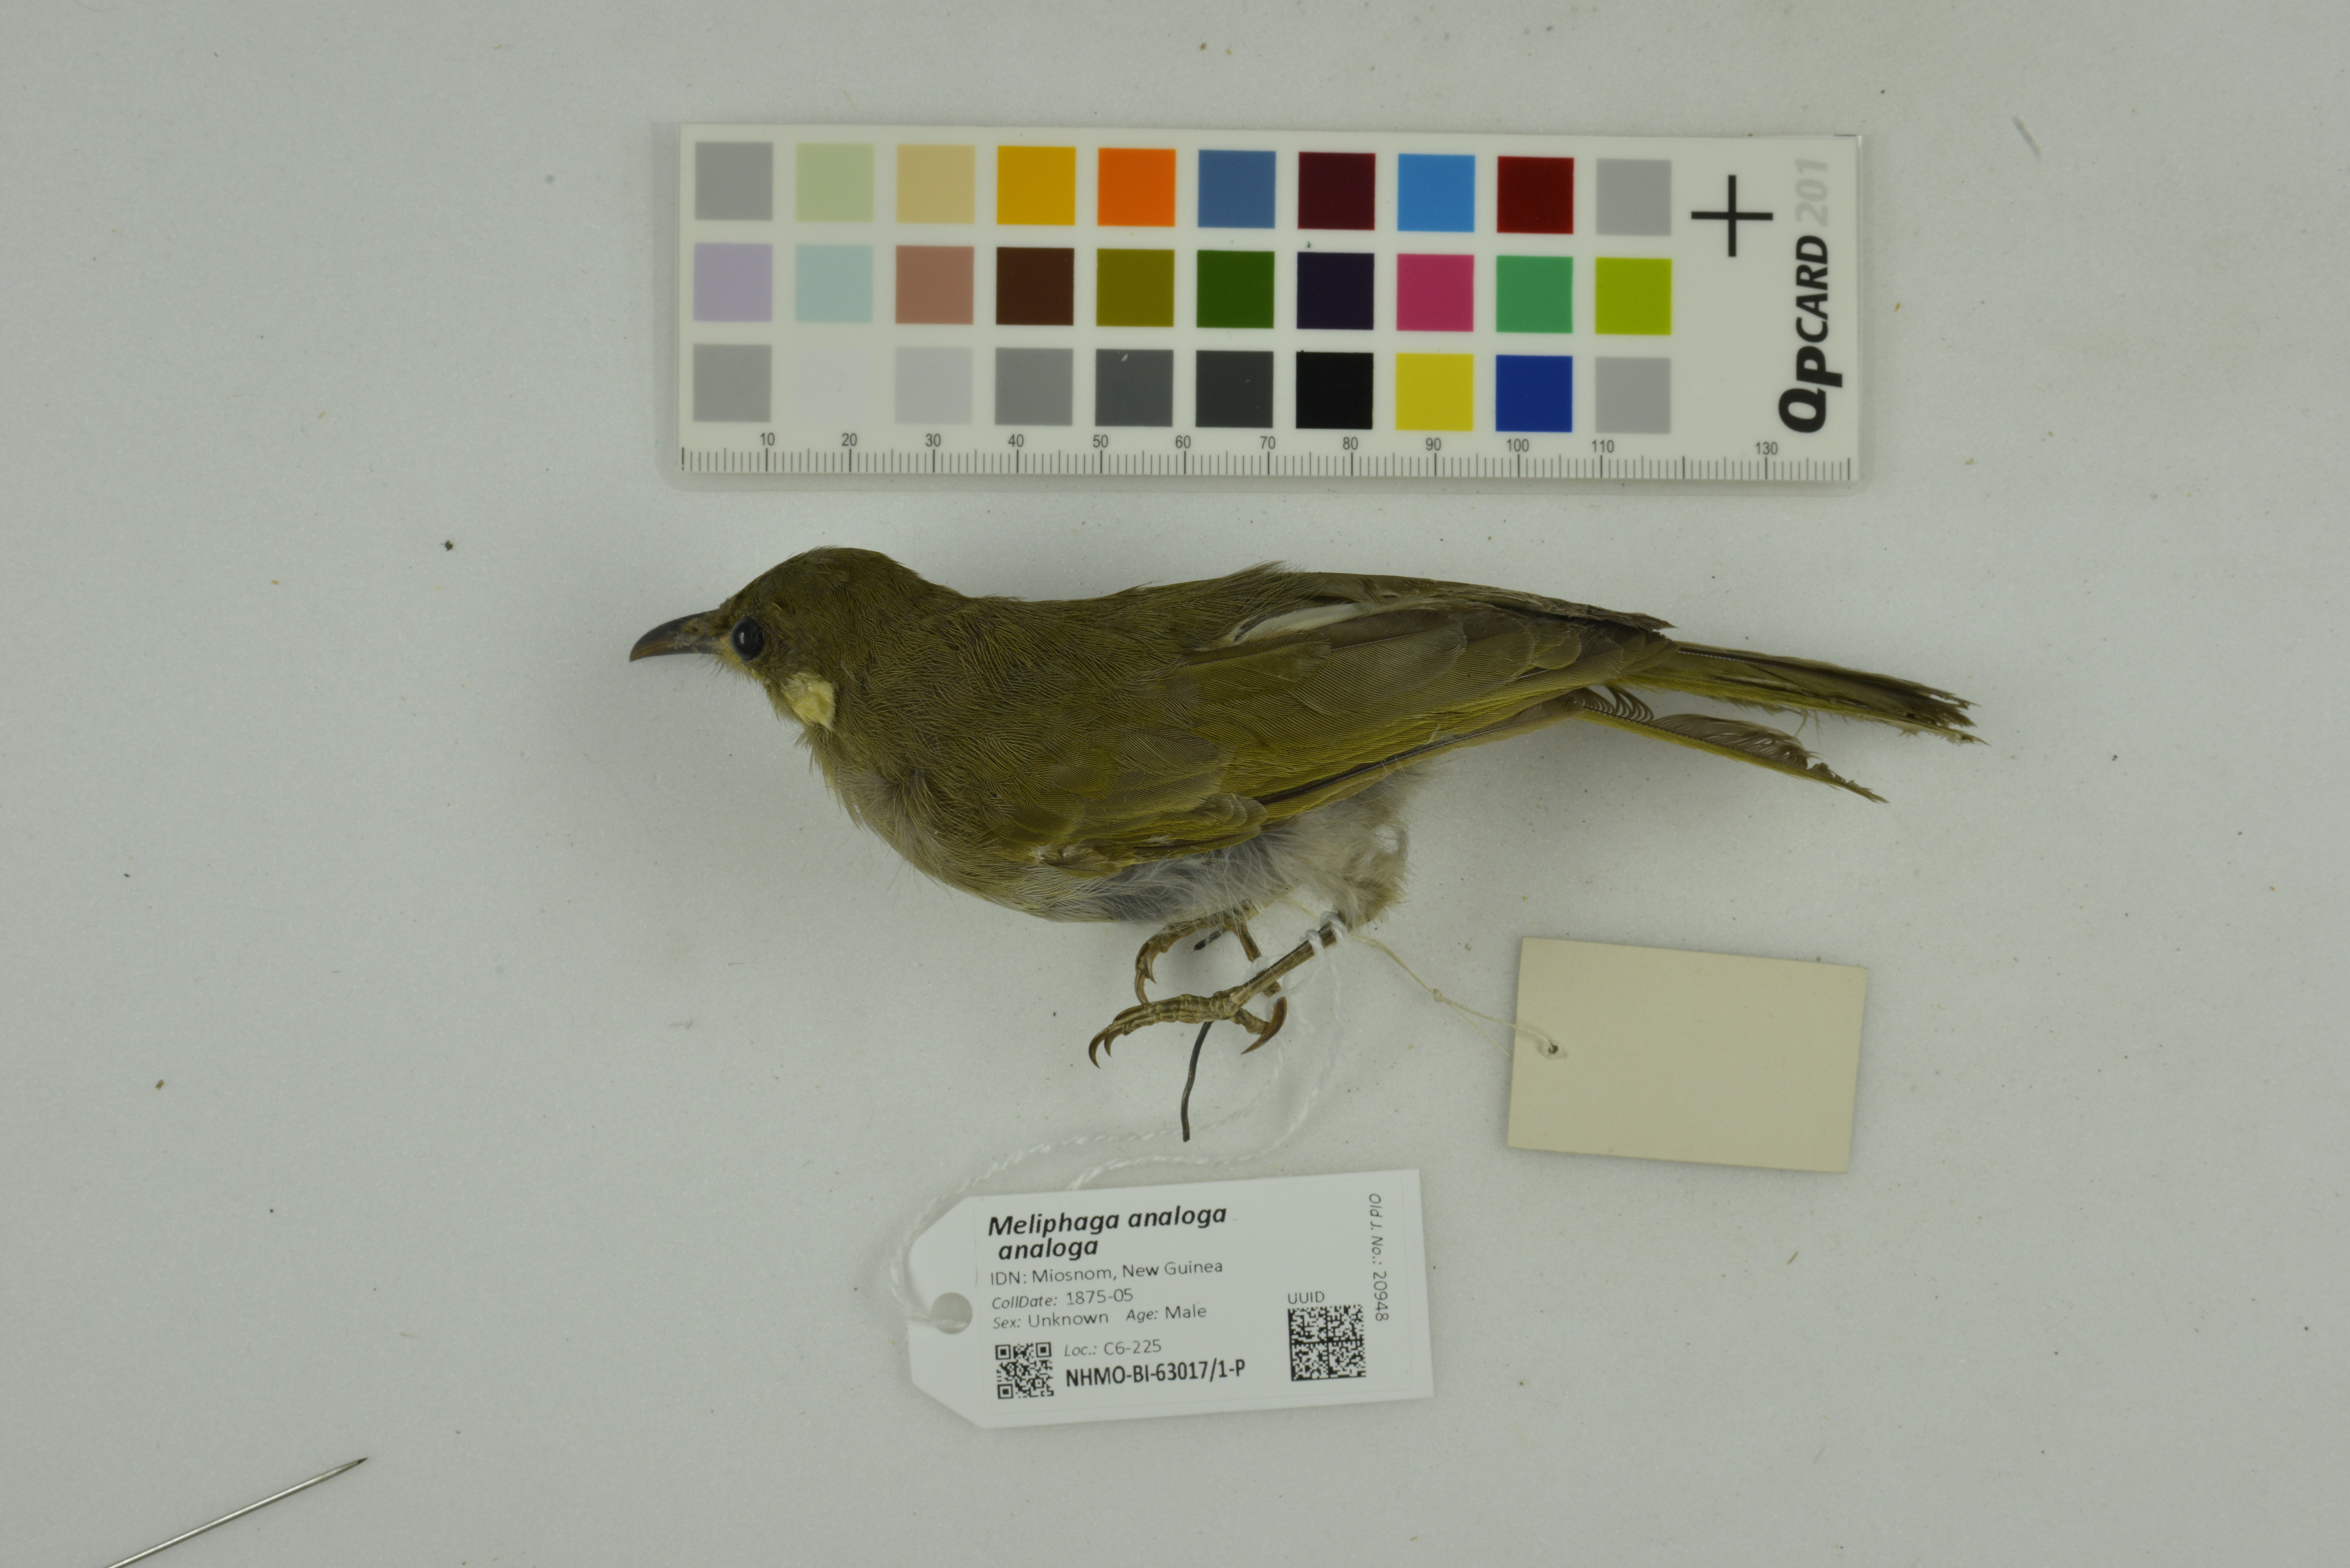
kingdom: Animalia
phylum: Chordata
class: Aves
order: Passeriformes
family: Meliphagidae
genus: Microptilotis
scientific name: Microptilotis analogus
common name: Mimic honeyeater
